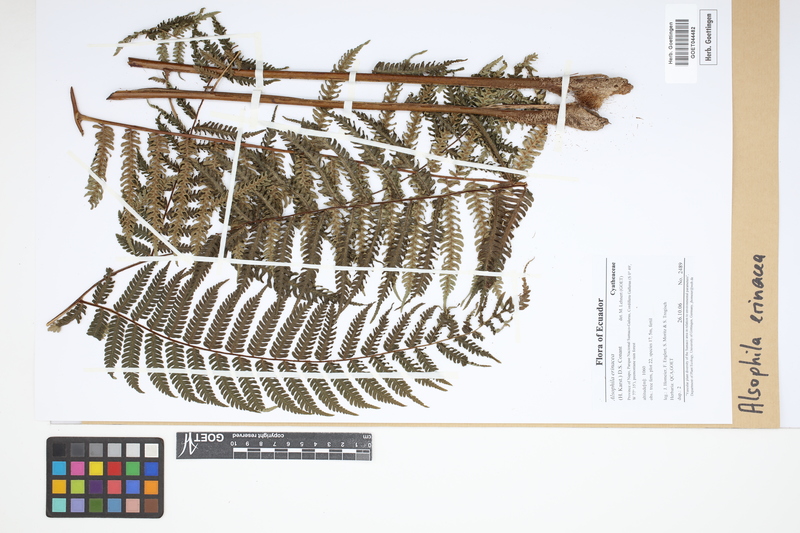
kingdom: Plantae
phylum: Tracheophyta
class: Polypodiopsida
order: Cyatheales
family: Cyatheaceae
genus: Alsophila
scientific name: Alsophila erinacea
